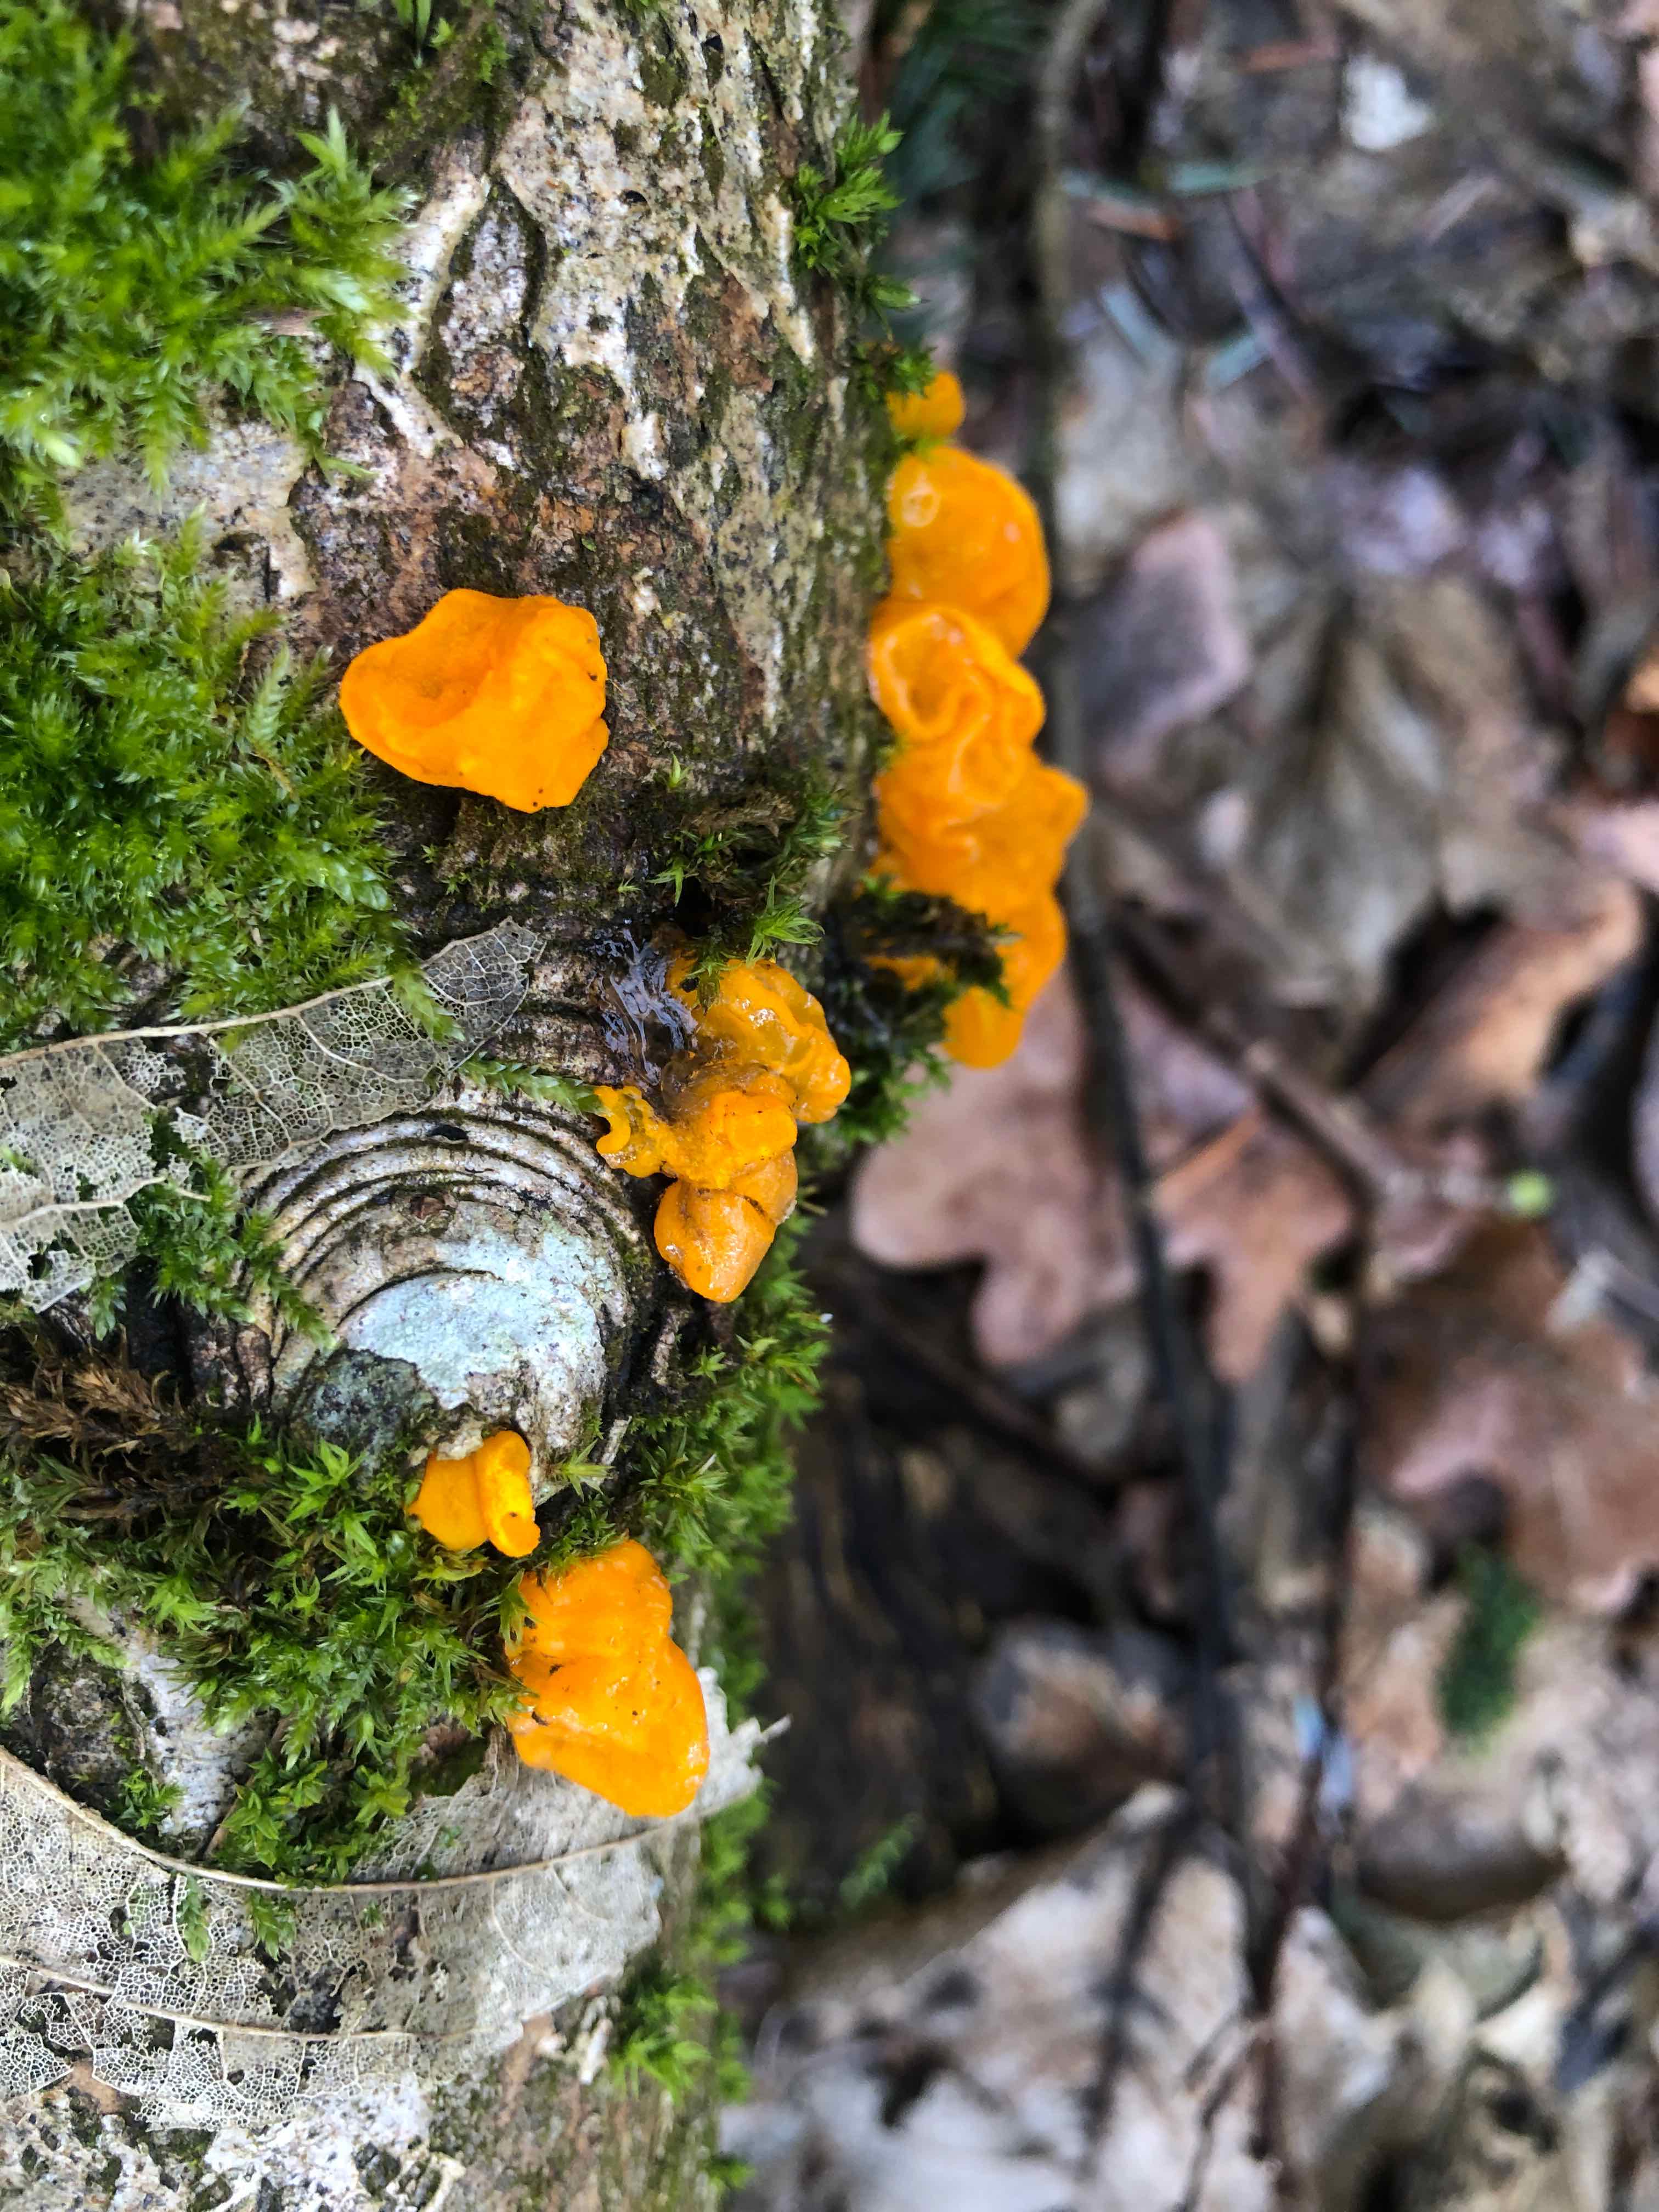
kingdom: Fungi
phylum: Basidiomycota
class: Tremellomycetes
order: Tremellales
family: Tremellaceae
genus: Tremella
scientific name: Tremella mesenterica
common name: gul bævresvamp
